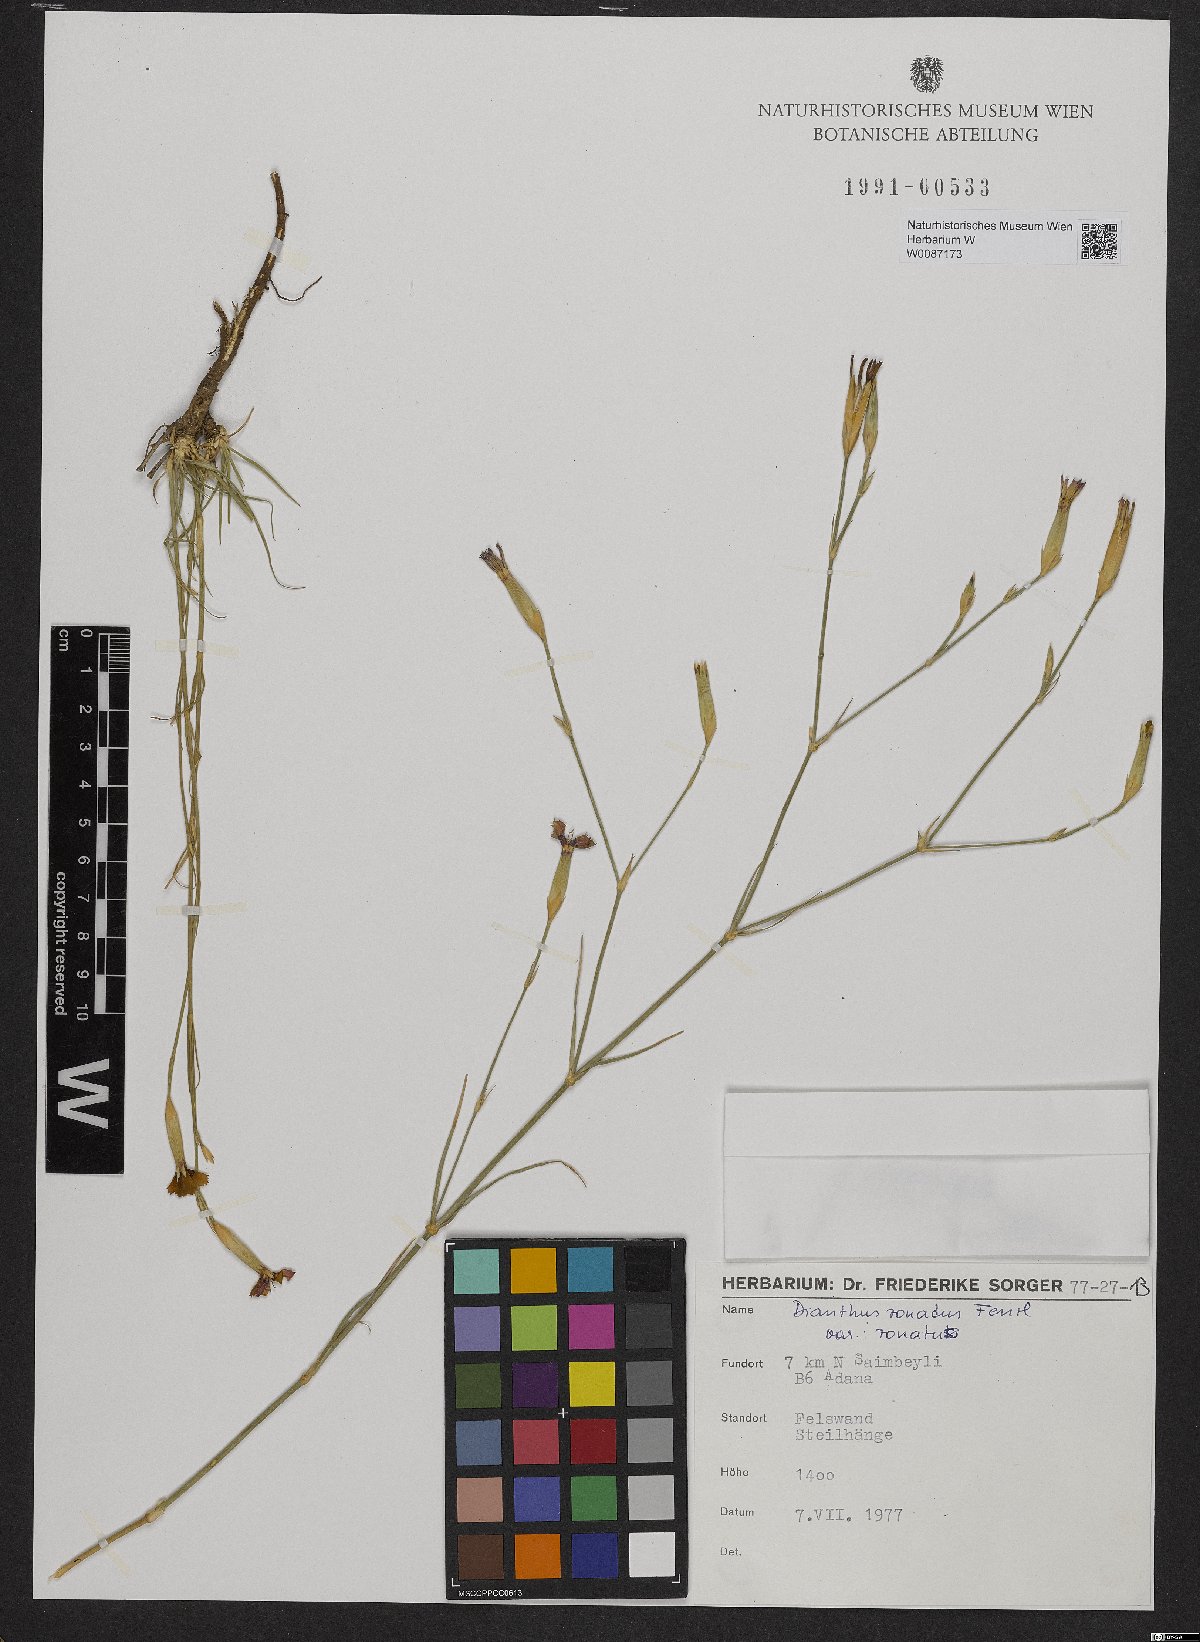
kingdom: Plantae
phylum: Tracheophyta
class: Magnoliopsida
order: Caryophyllales
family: Caryophyllaceae
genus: Dianthus
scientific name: Dianthus zonatus
